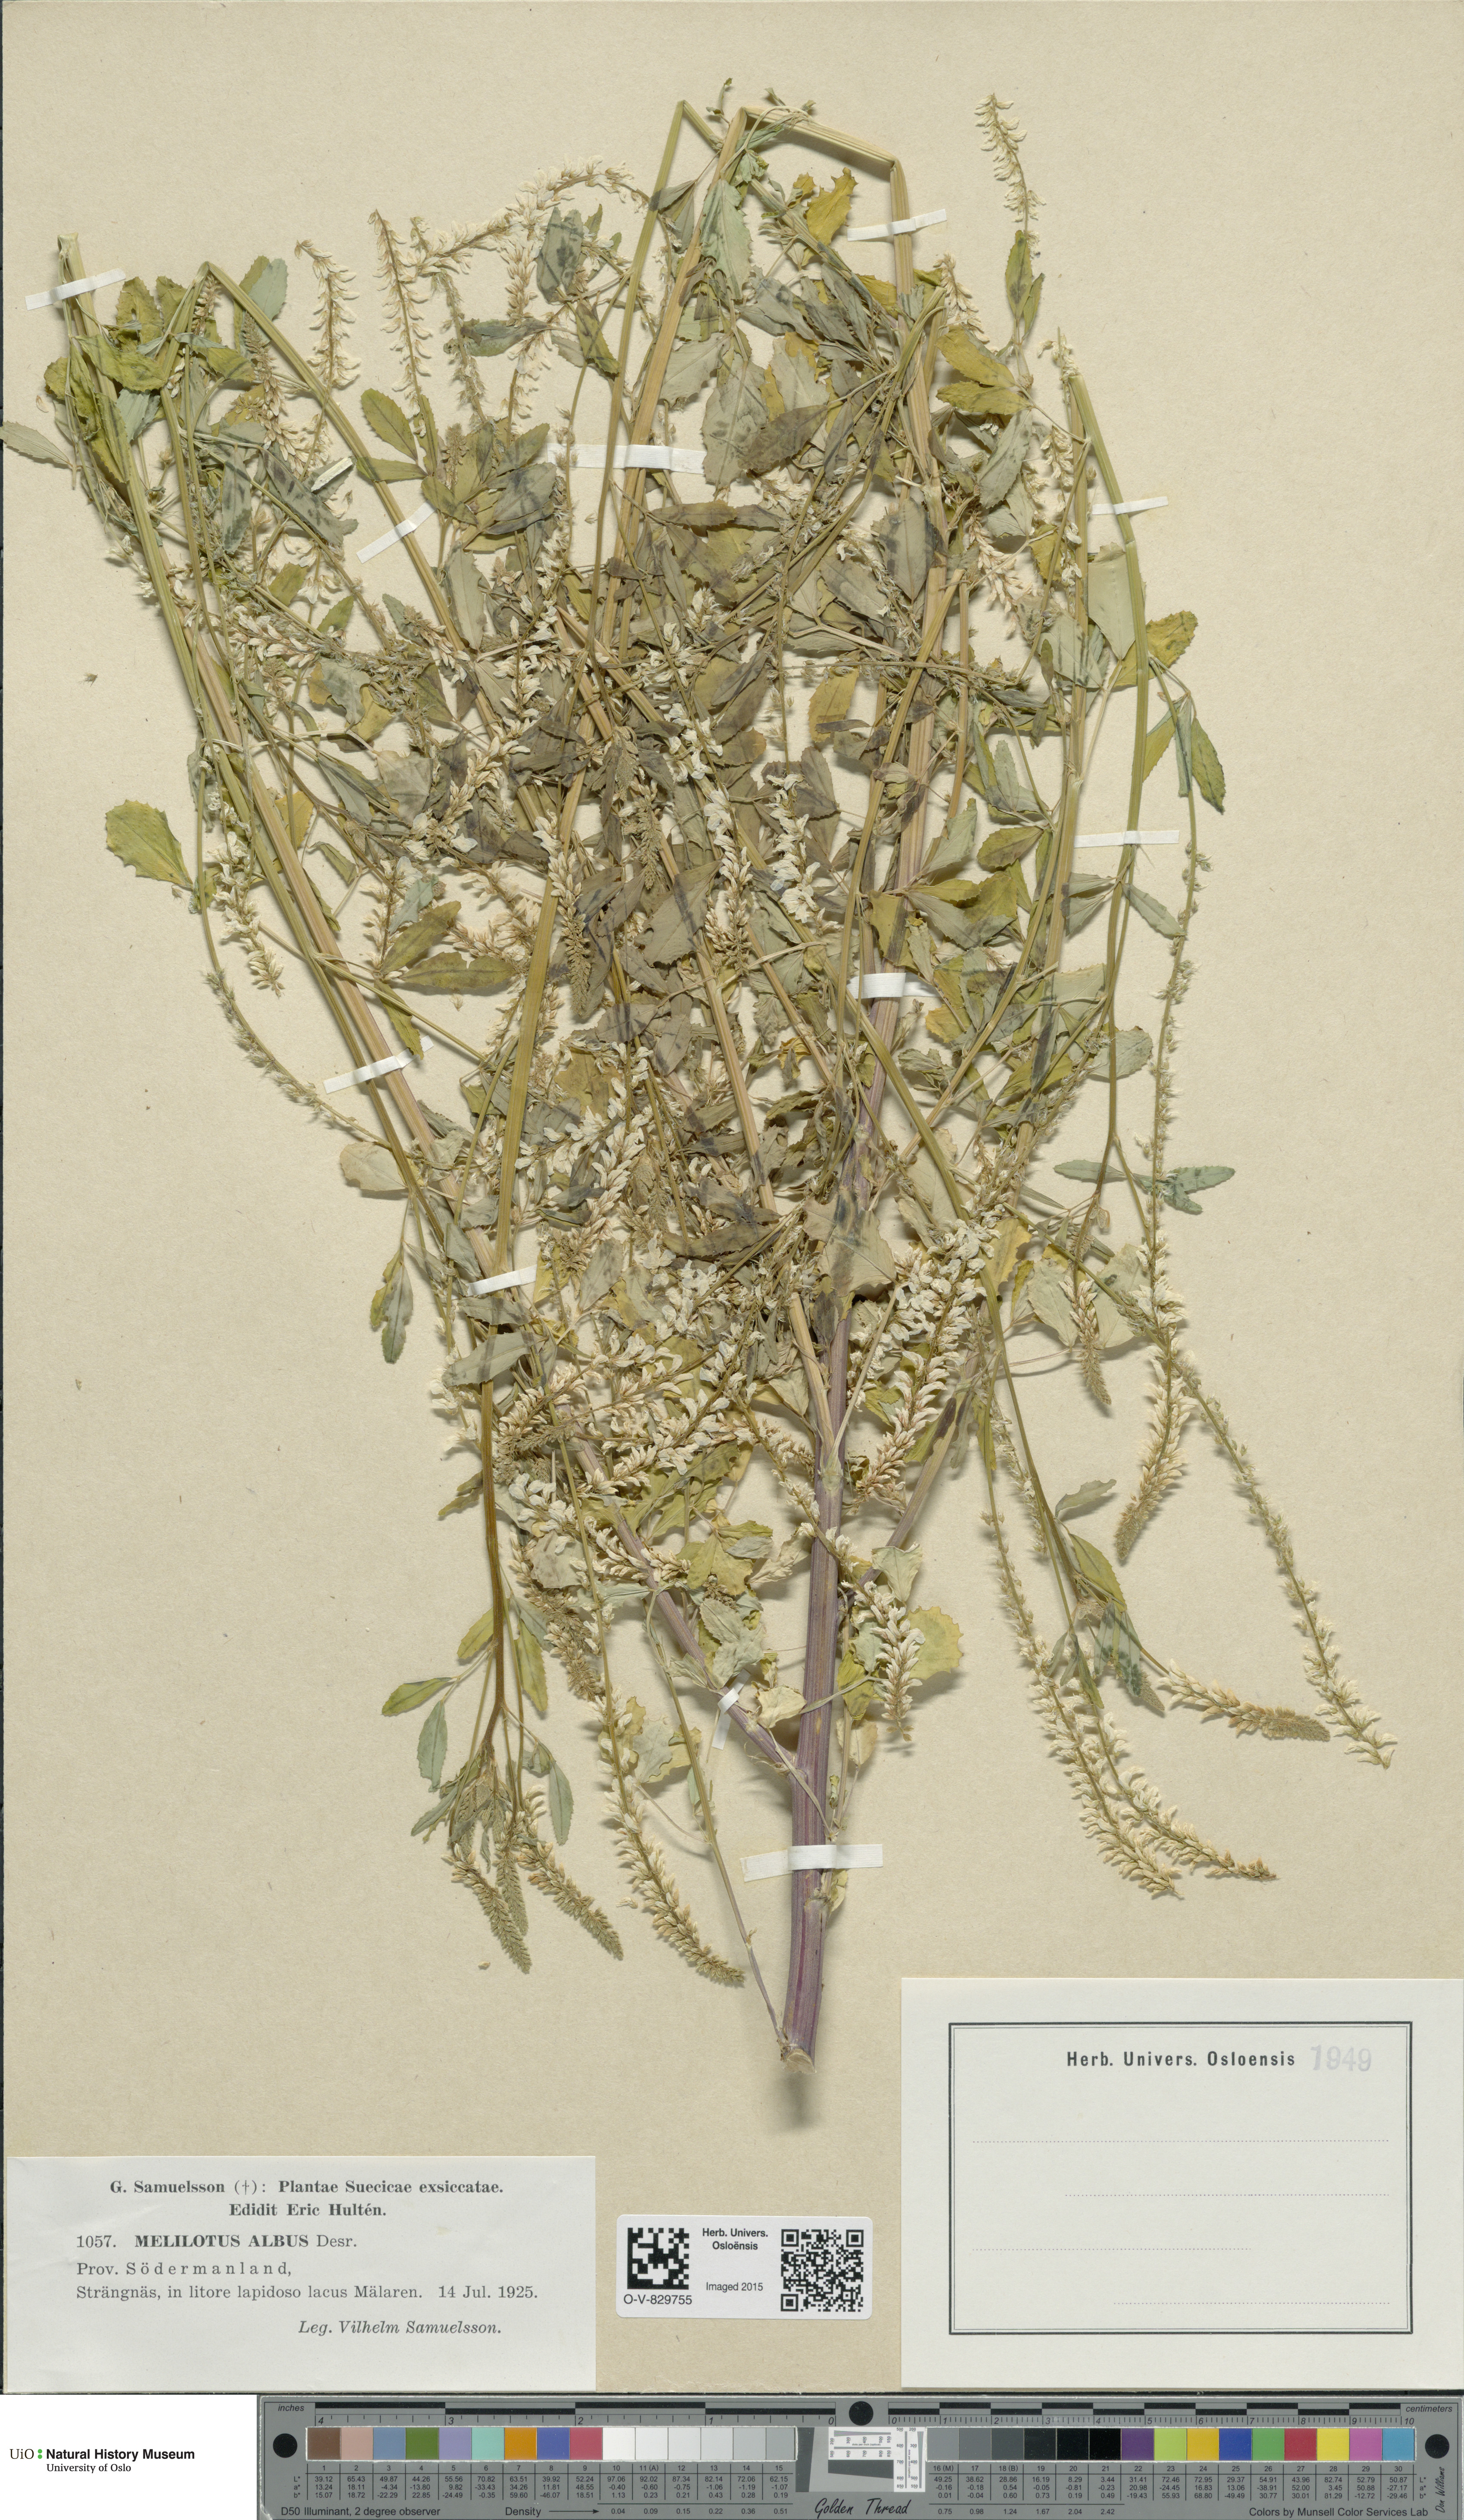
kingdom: Plantae
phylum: Tracheophyta
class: Magnoliopsida
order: Fabales
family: Fabaceae
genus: Melilotus
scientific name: Melilotus albus
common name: White melilot
